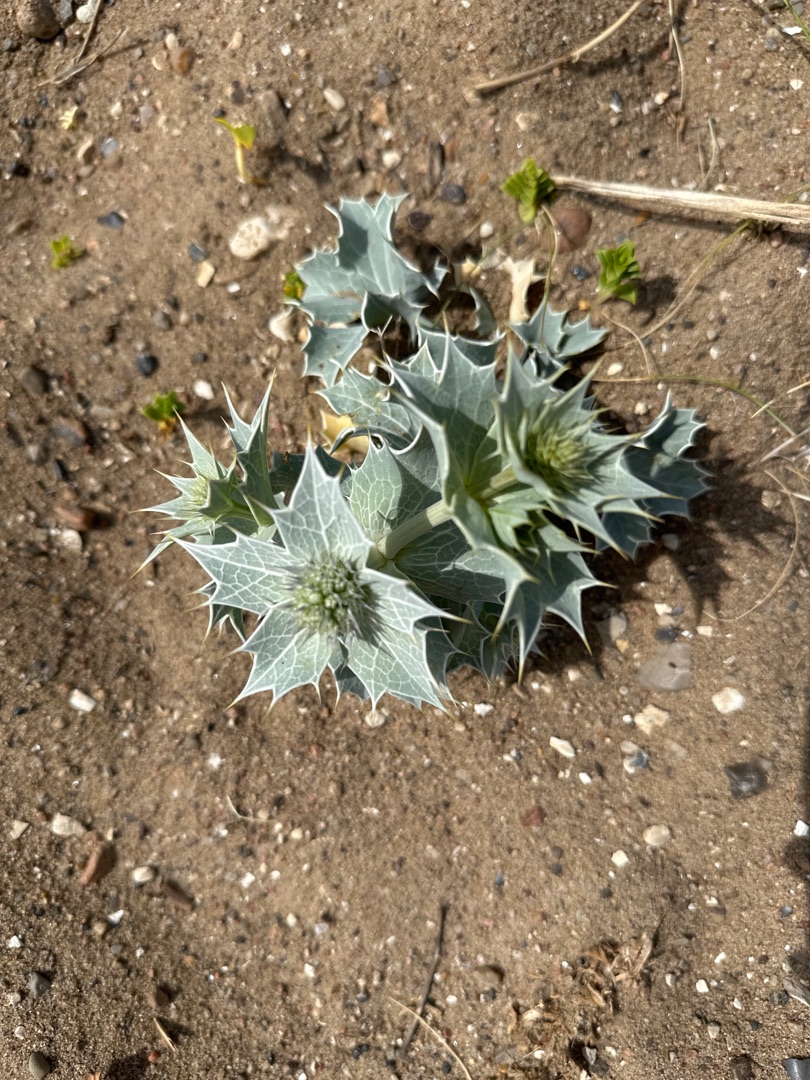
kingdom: Plantae
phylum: Tracheophyta
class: Magnoliopsida
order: Apiales
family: Apiaceae
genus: Eryngium
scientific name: Eryngium maritimum
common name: Strand-mandstro
